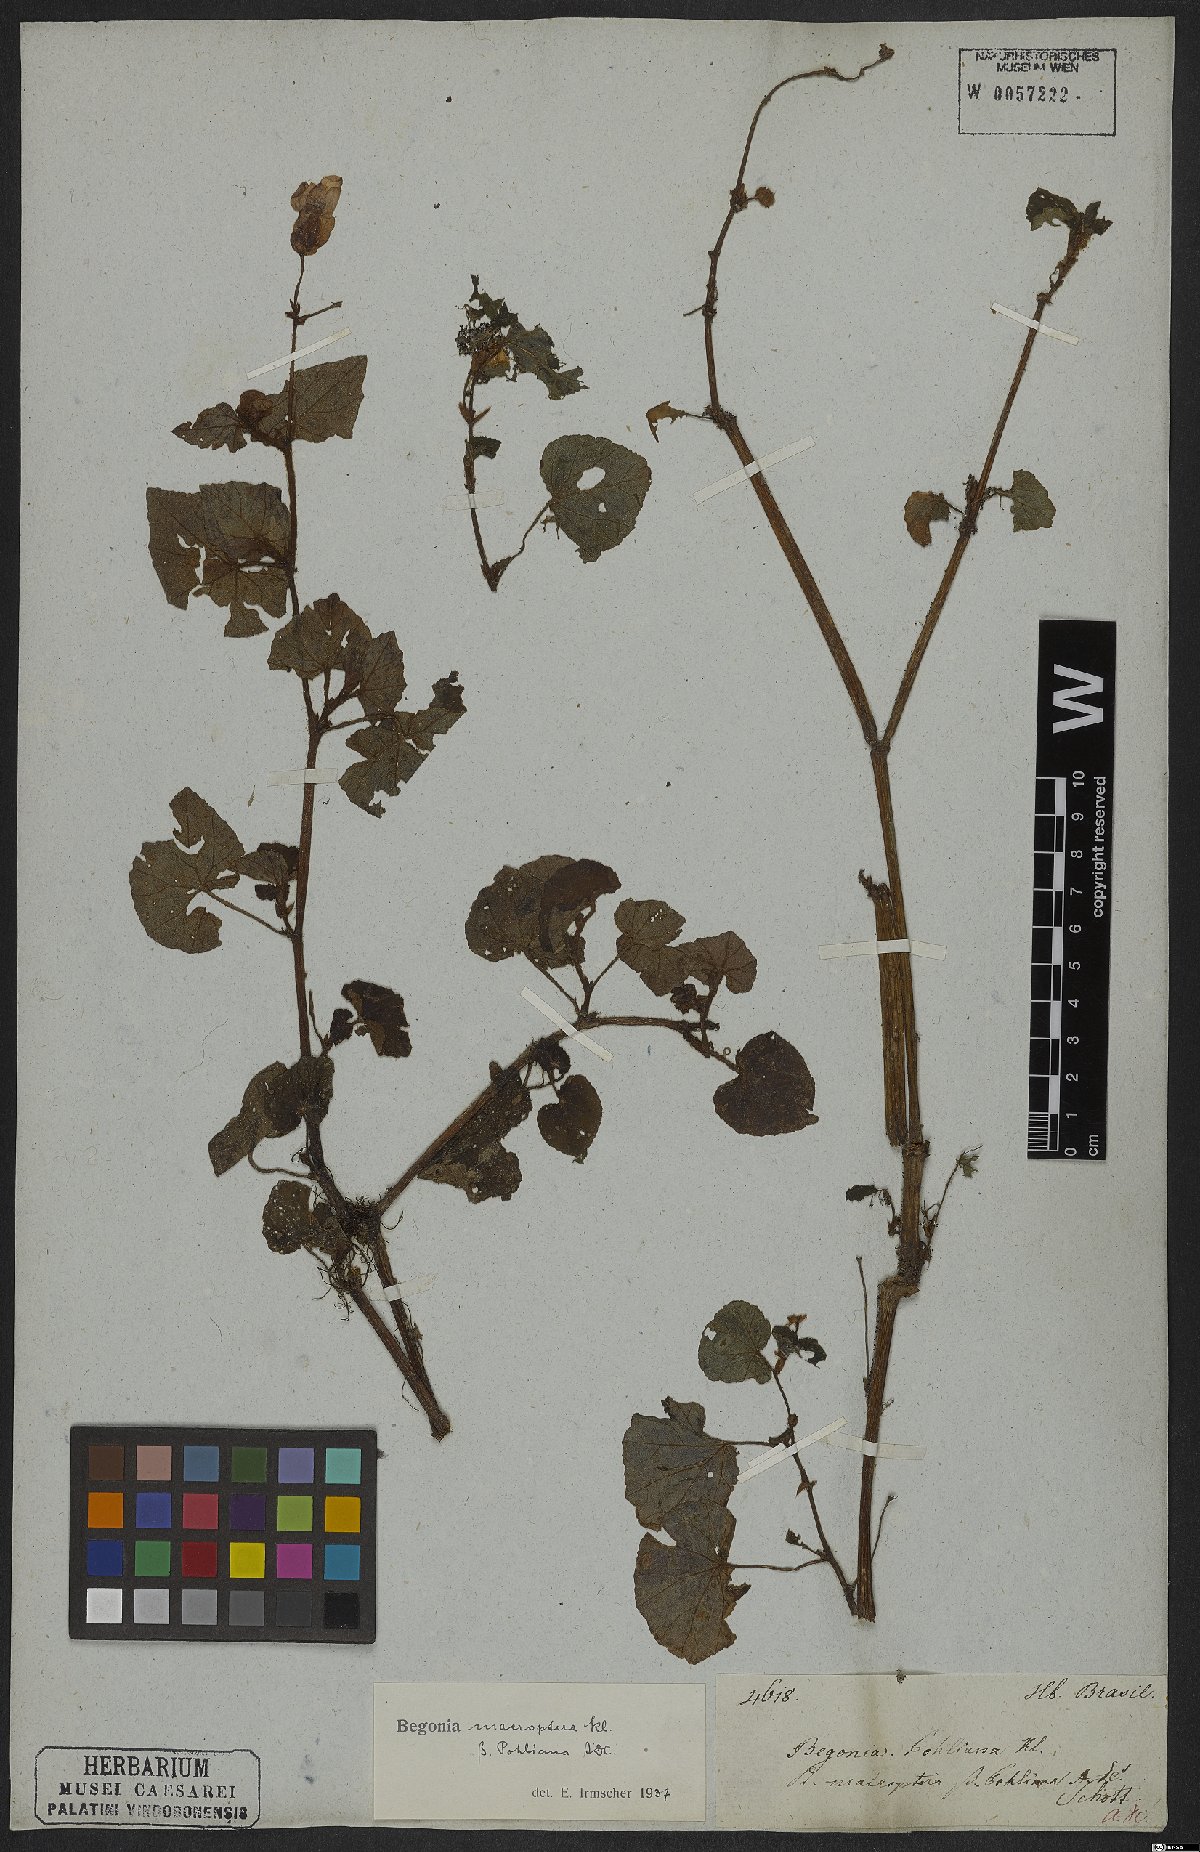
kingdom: Plantae
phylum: Tracheophyta
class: Magnoliopsida
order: Cucurbitales
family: Begoniaceae
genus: Begonia
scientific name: Begonia fischeri
